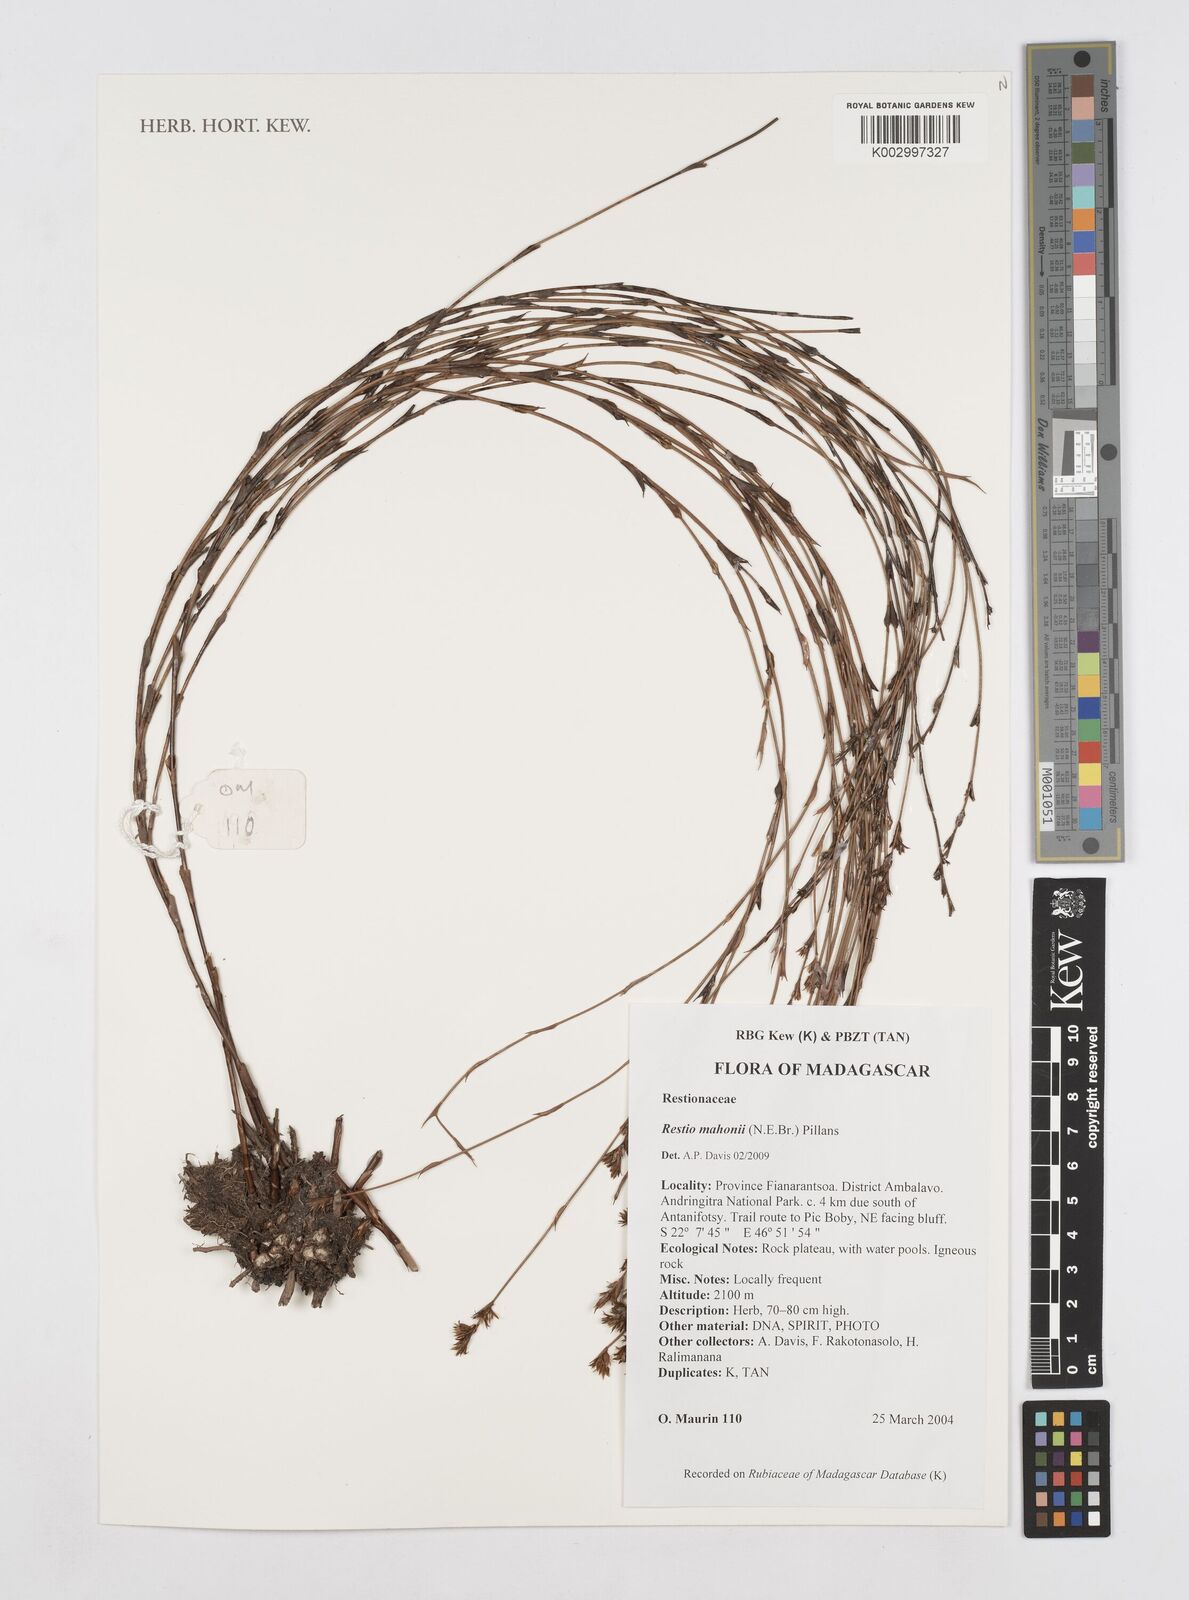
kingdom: Plantae
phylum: Tracheophyta
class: Liliopsida
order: Poales
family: Restionaceae
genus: Platycaulos
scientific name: Platycaulos mahonii
